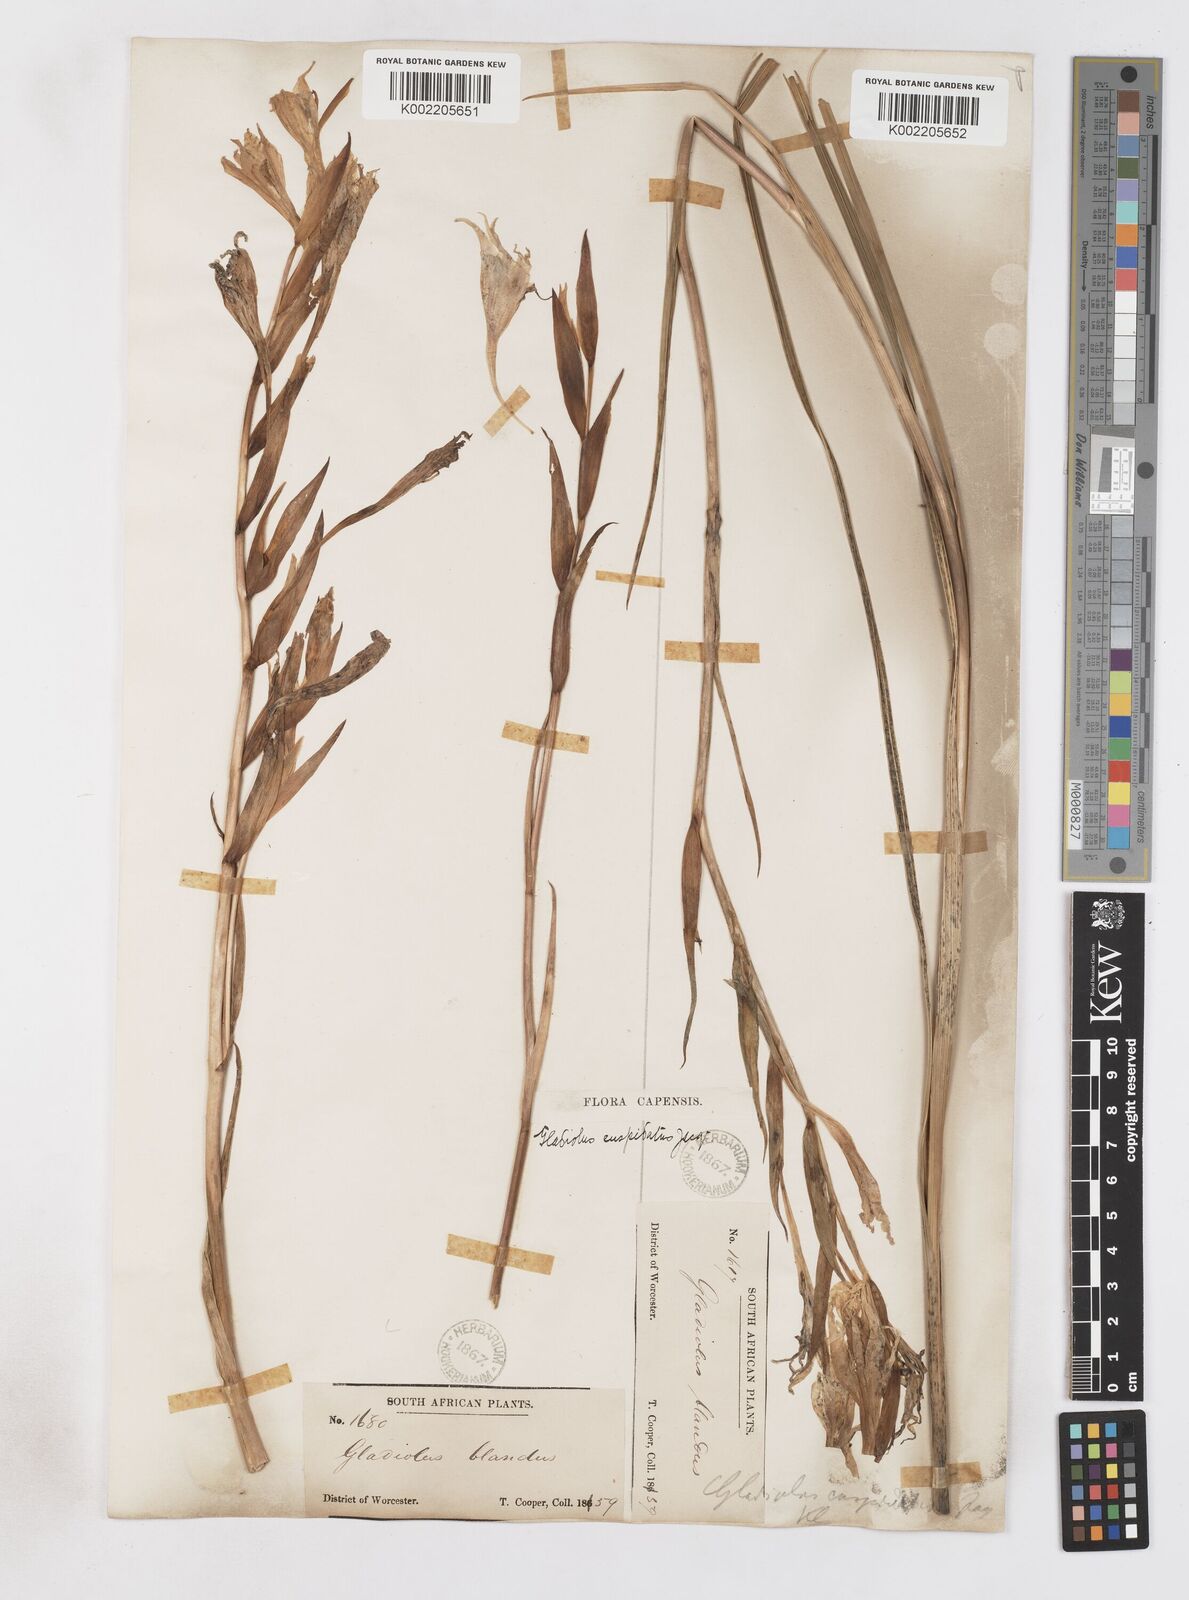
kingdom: Plantae
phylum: Tracheophyta
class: Liliopsida
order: Asparagales
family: Iridaceae
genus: Gladiolus
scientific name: Gladiolus undulatus
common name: Large painted-lady
